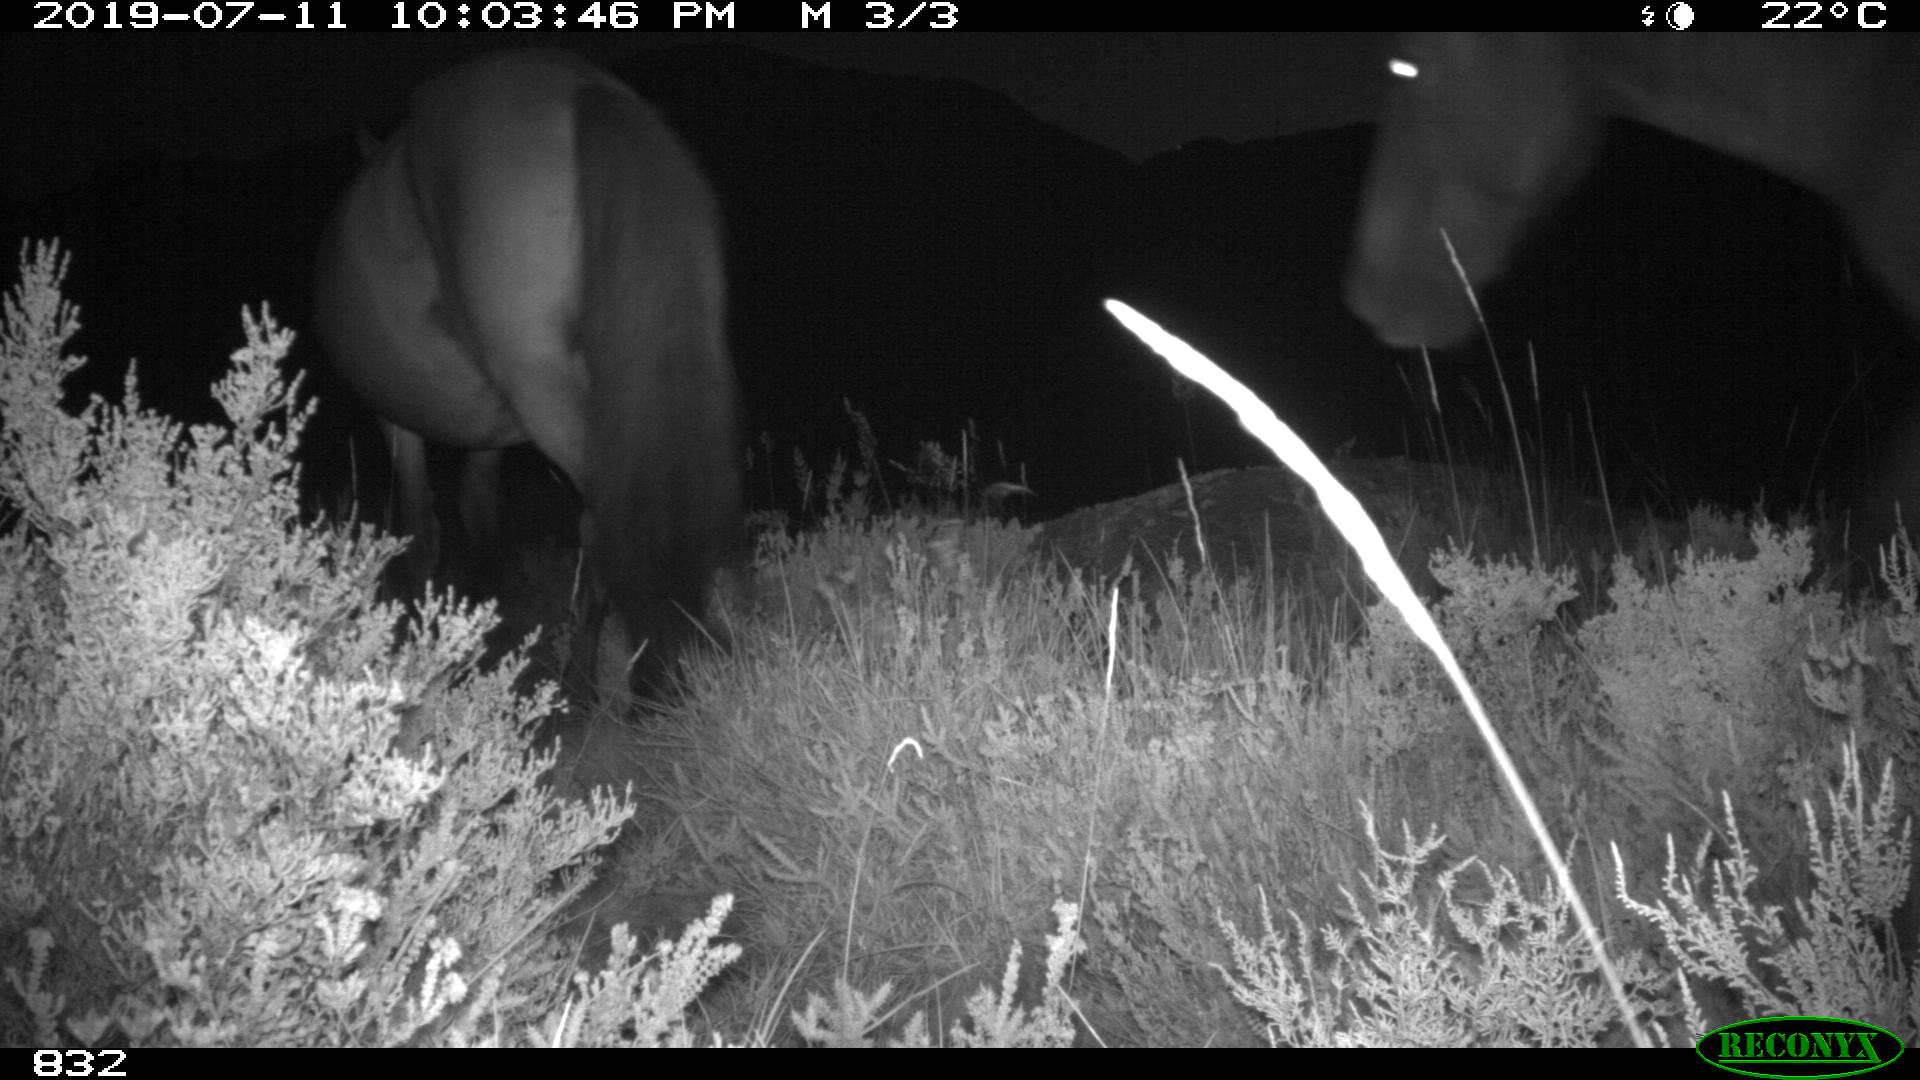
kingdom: Animalia
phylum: Chordata
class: Mammalia
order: Perissodactyla
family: Equidae
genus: Equus
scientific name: Equus caballus
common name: Horse
